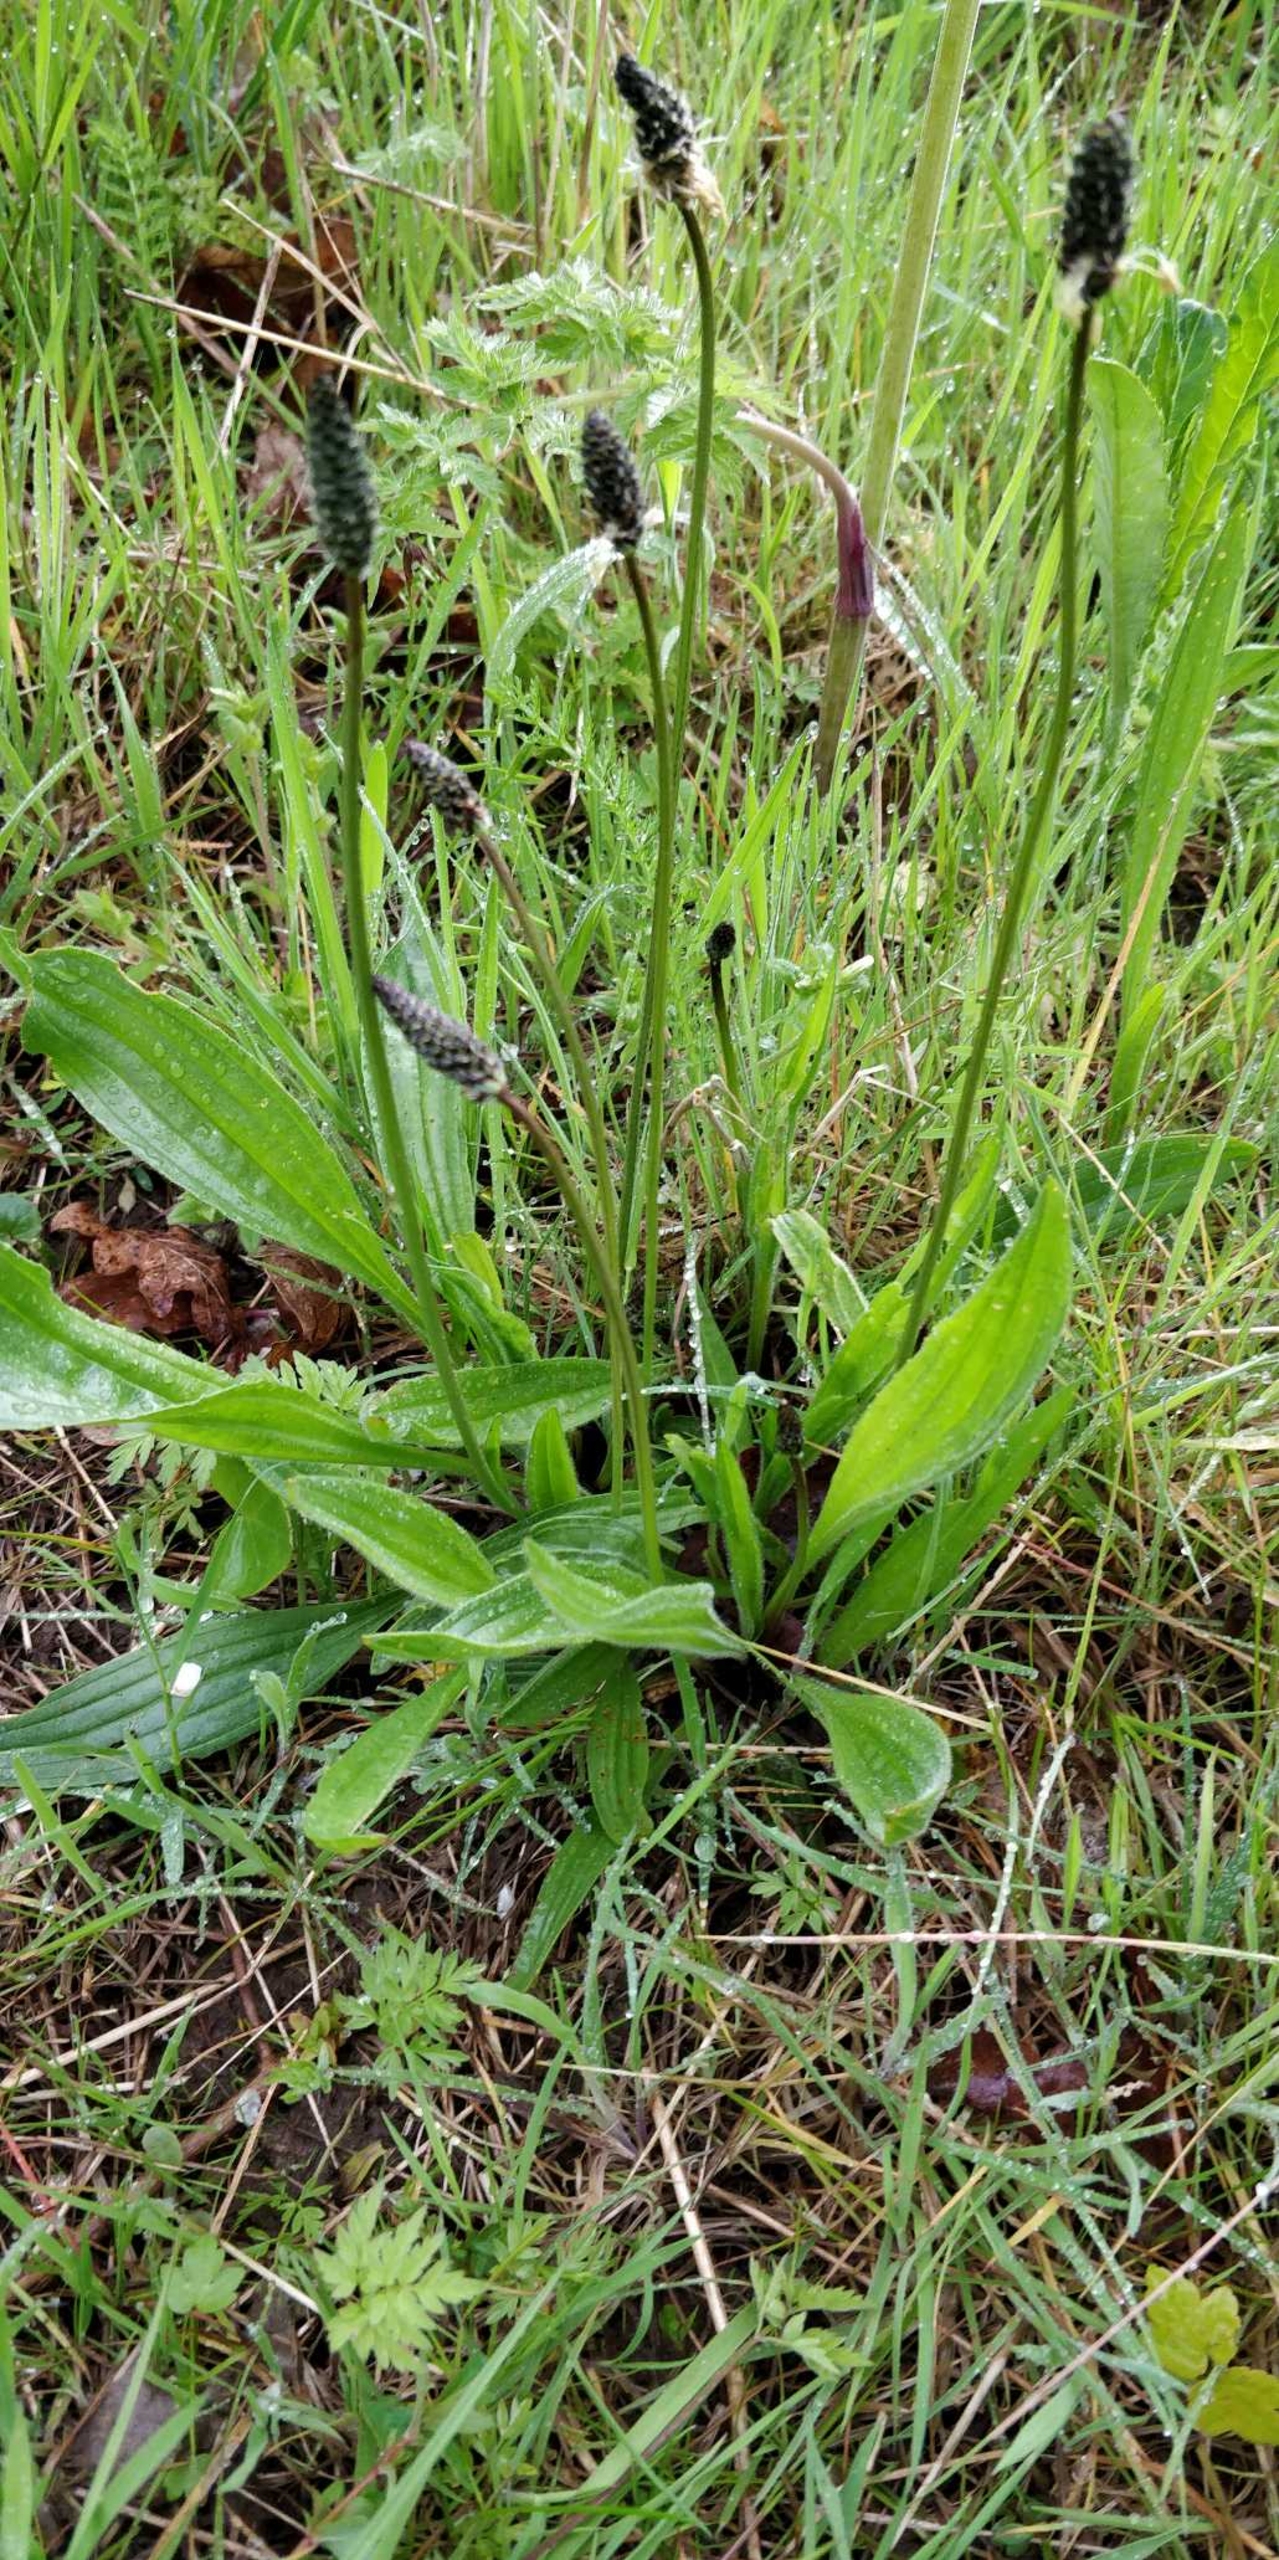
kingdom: Plantae
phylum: Tracheophyta
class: Magnoliopsida
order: Lamiales
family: Plantaginaceae
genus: Plantago
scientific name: Plantago lanceolata
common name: Lancet-vejbred
